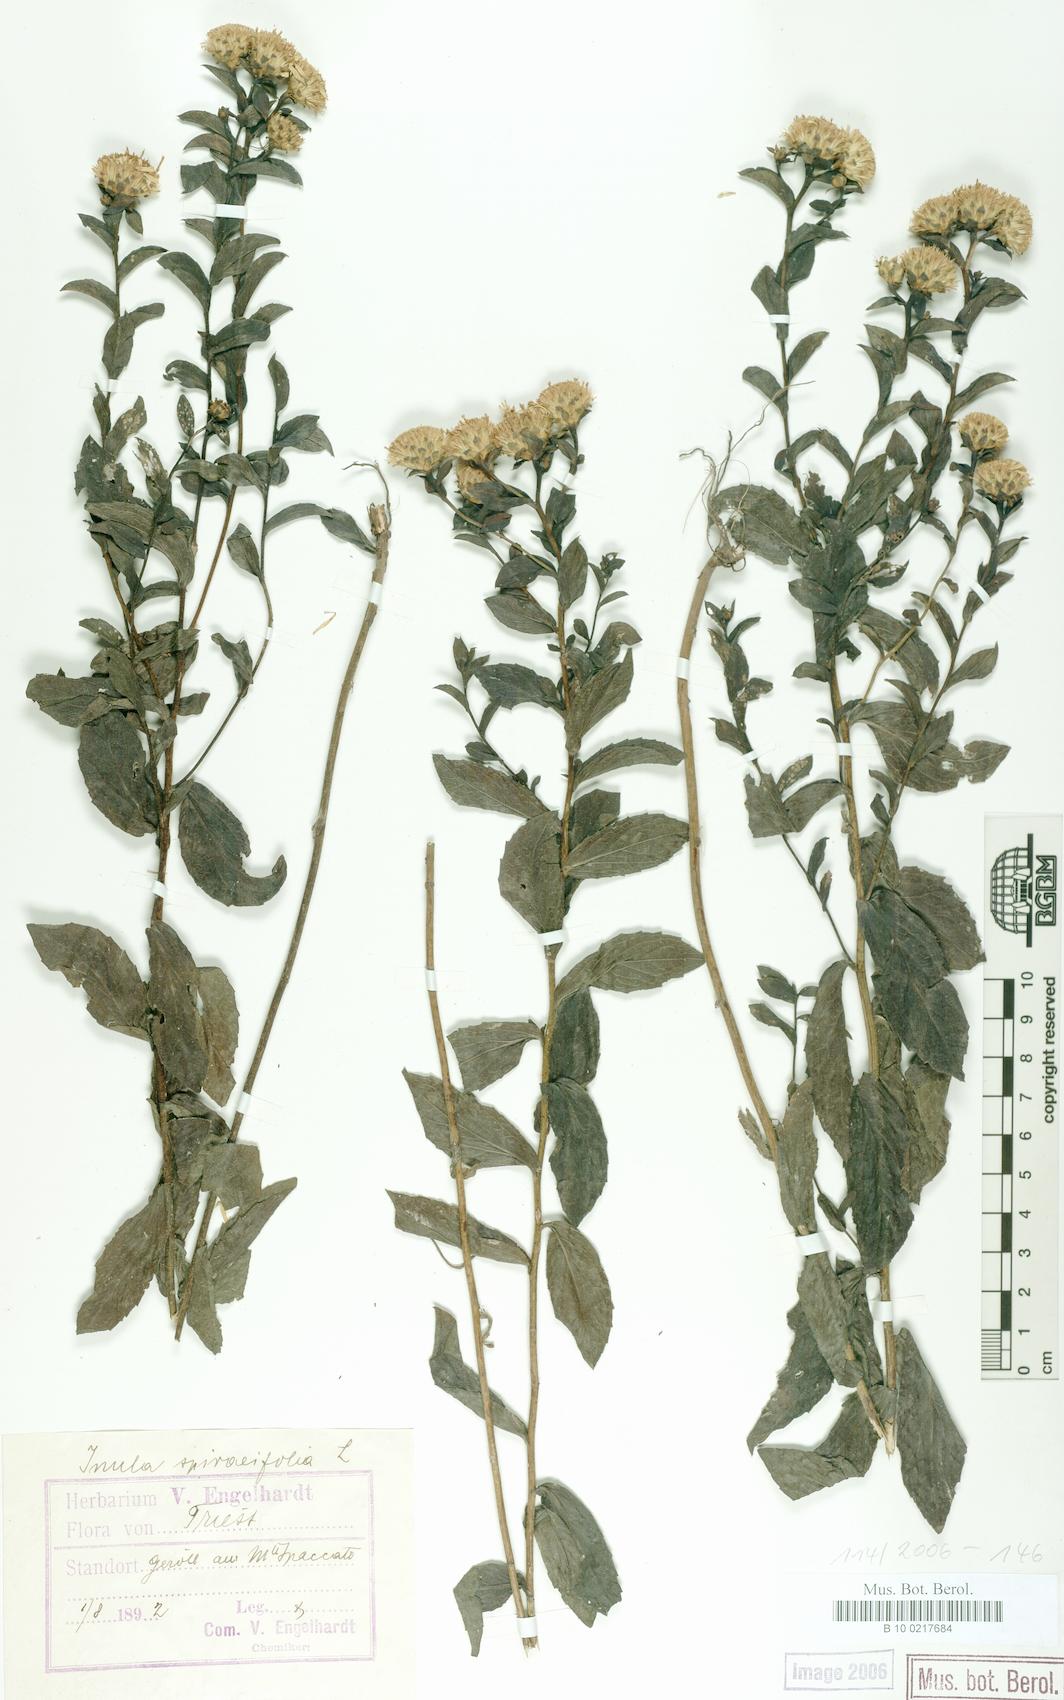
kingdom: Plantae
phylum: Tracheophyta
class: Magnoliopsida
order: Asterales
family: Asteraceae
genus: Pentanema
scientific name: Pentanema spiraeifolium
